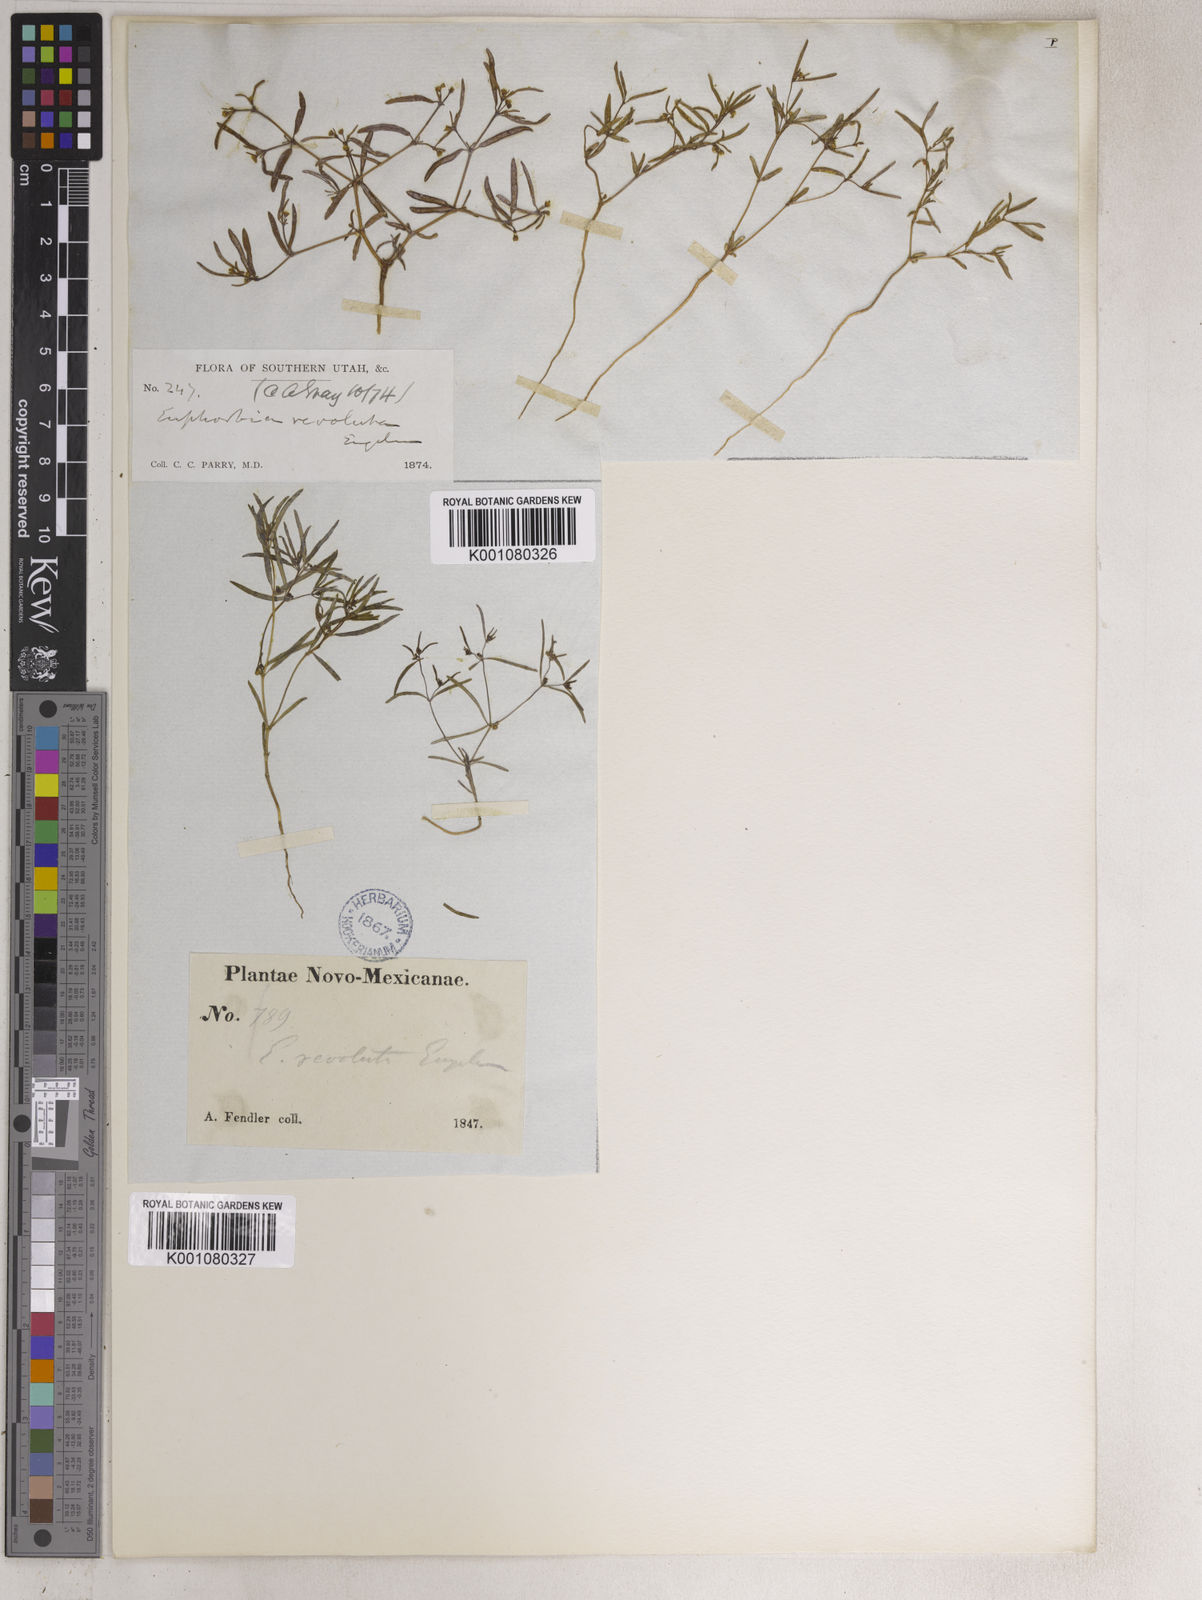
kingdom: Plantae
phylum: Tracheophyta
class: Magnoliopsida
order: Malpighiales
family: Euphorbiaceae
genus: Euphorbia
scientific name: Euphorbia revoluta
